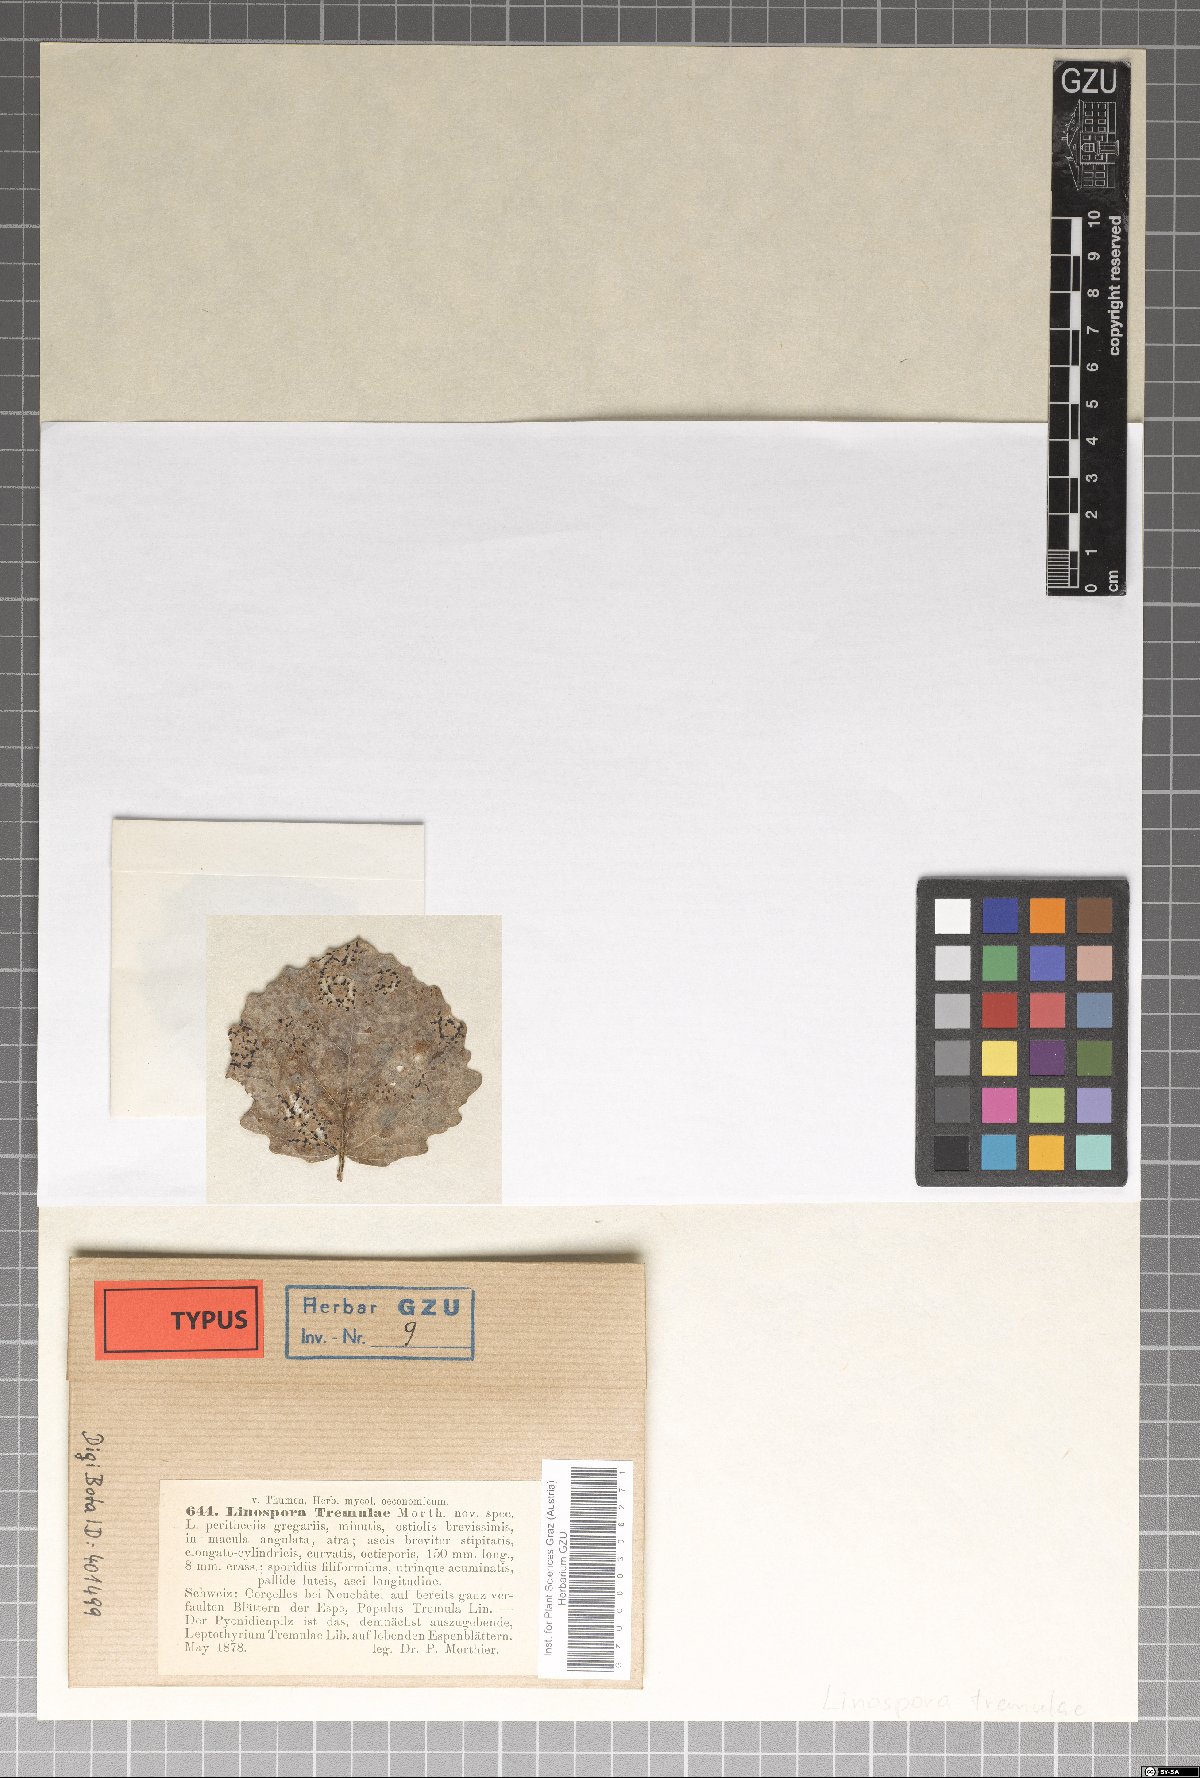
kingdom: Fungi
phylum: Ascomycota
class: Sordariomycetes
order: Diaporthales
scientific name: Diaporthales
